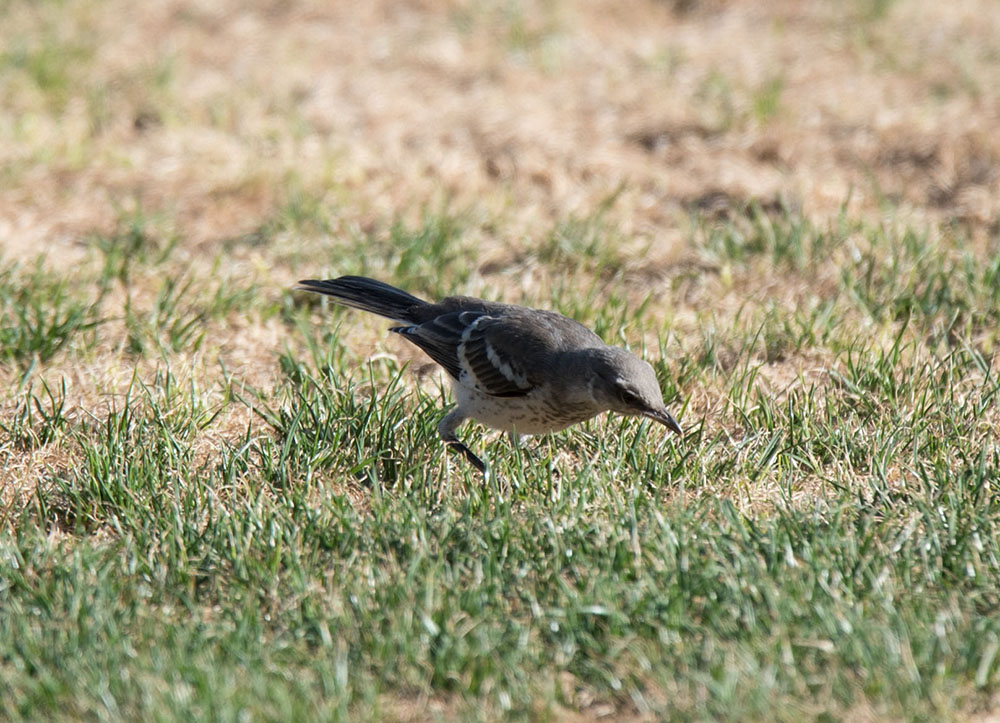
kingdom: Animalia
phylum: Chordata
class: Aves
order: Passeriformes
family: Mimidae
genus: Mimus
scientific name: Mimus polyglottos
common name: Northern mockingbird
